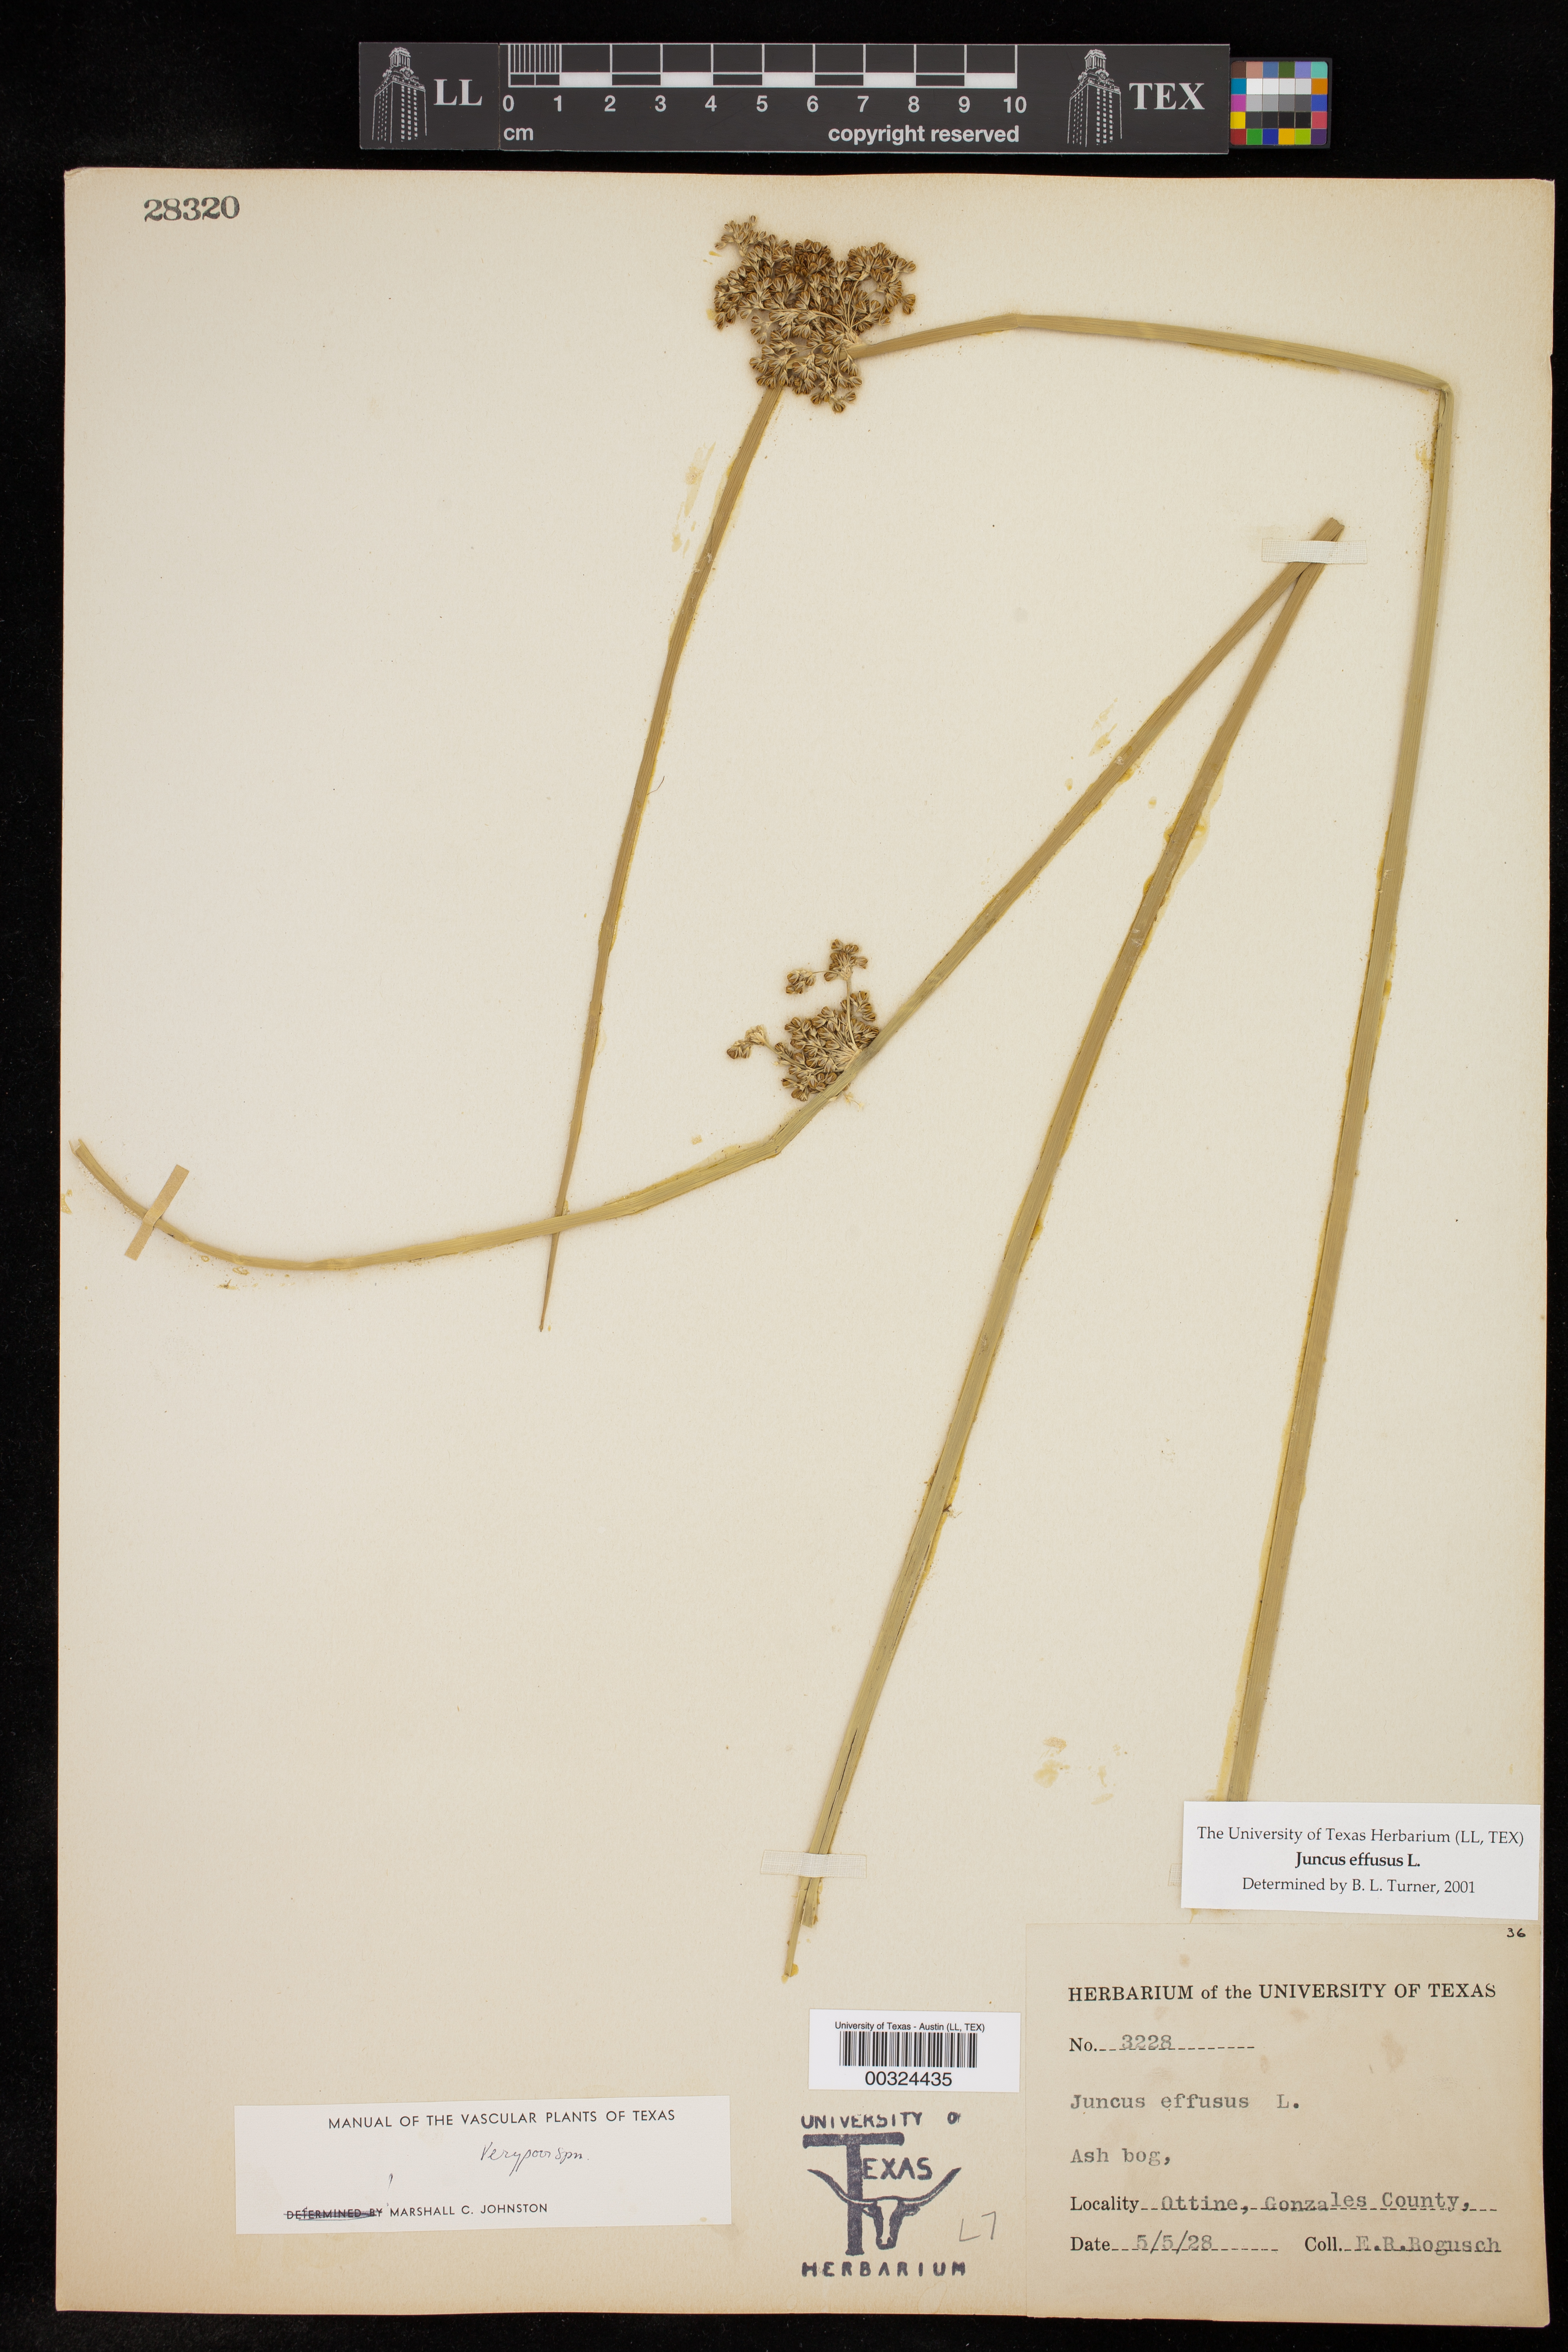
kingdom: Plantae
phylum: Tracheophyta
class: Liliopsida
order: Poales
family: Juncaceae
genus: Juncus
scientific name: Juncus effusus
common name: Soft rush
